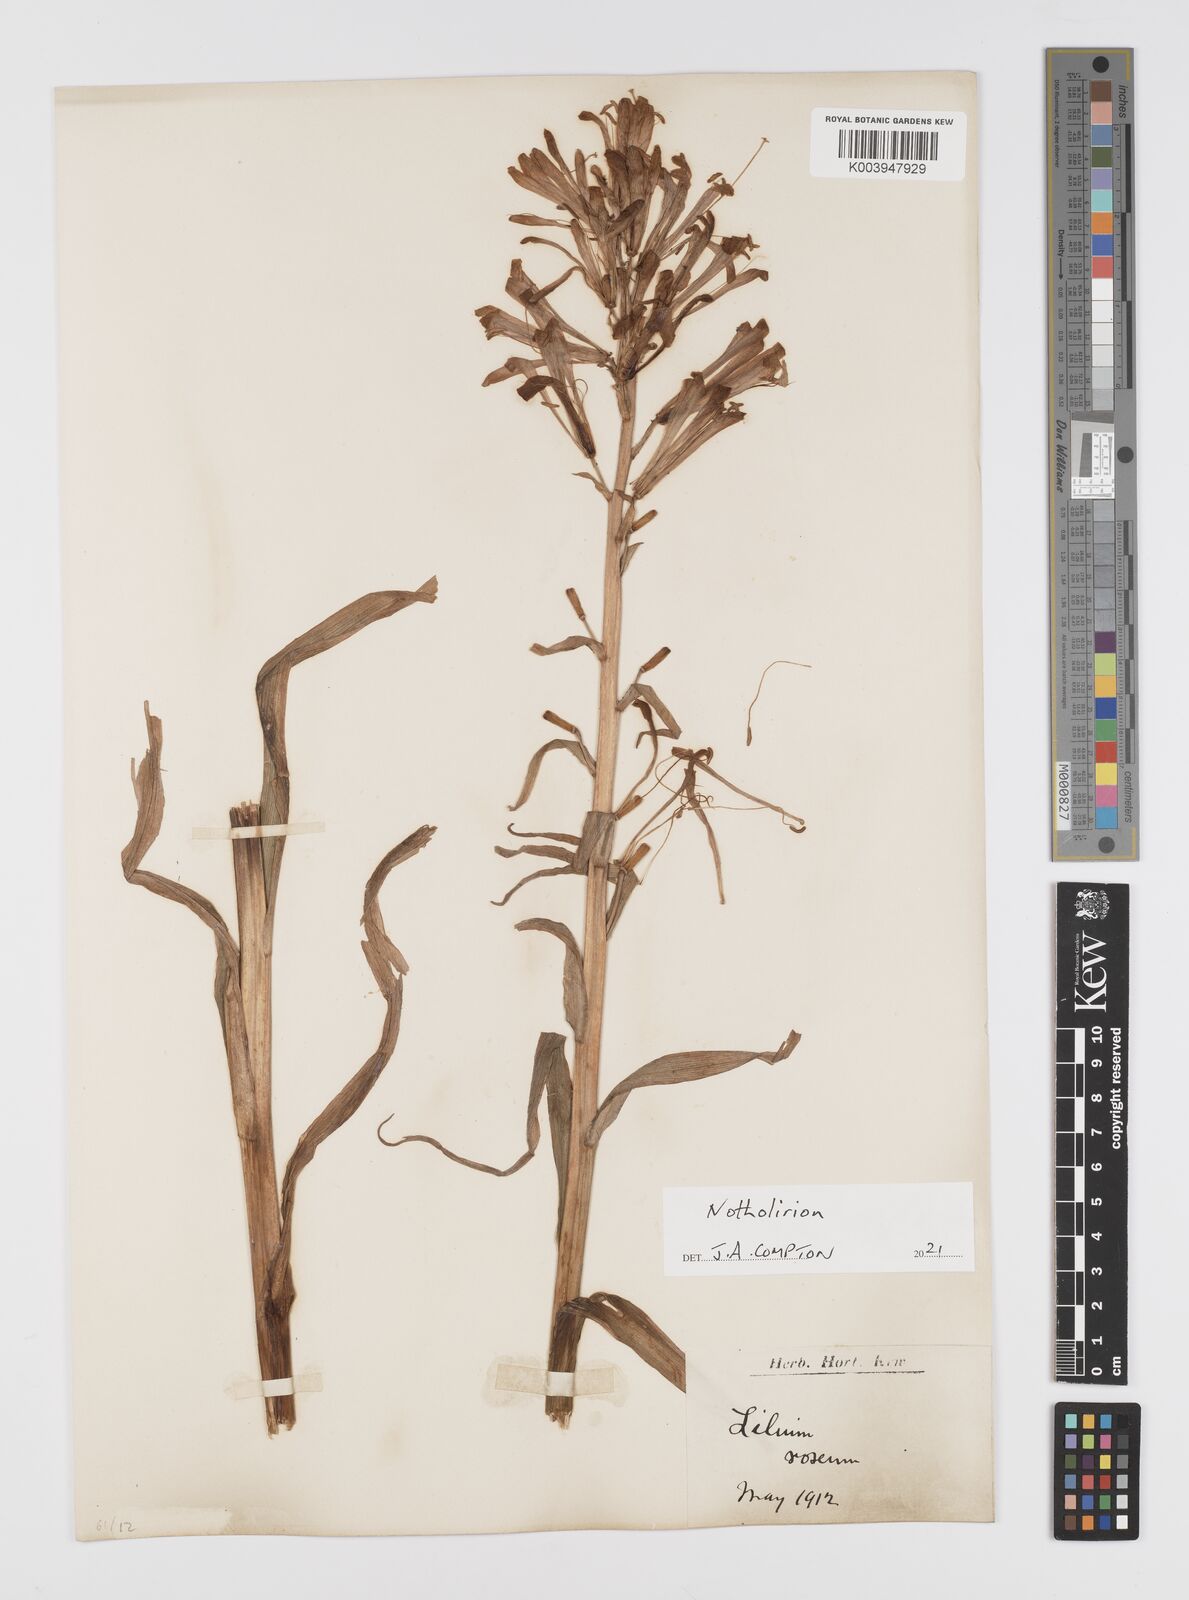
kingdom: Plantae
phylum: Tracheophyta
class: Liliopsida
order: Liliales
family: Liliaceae
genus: Notholirion
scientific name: Notholirion thomsonianum
